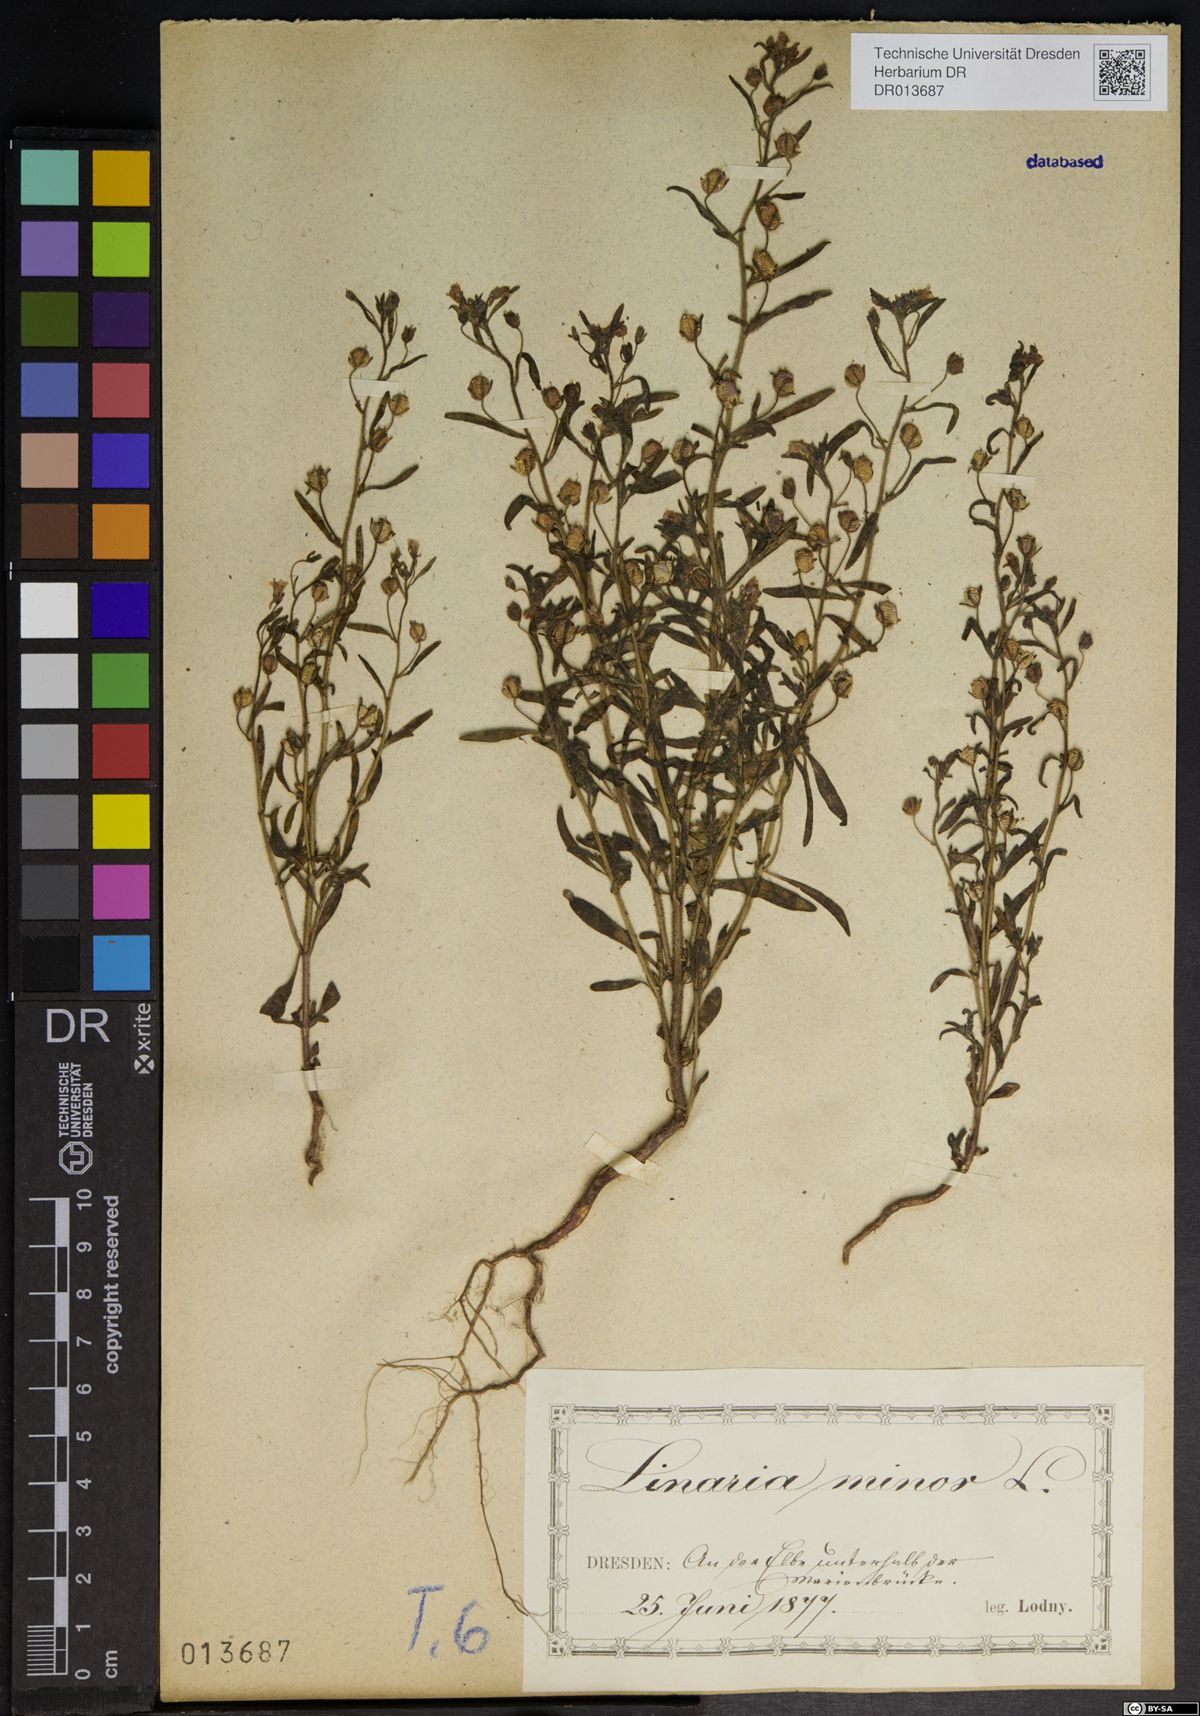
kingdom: Plantae
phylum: Tracheophyta
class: Magnoliopsida
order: Lamiales
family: Plantaginaceae
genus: Chaenorhinum
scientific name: Chaenorhinum minus
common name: Dwarf snapdragon
